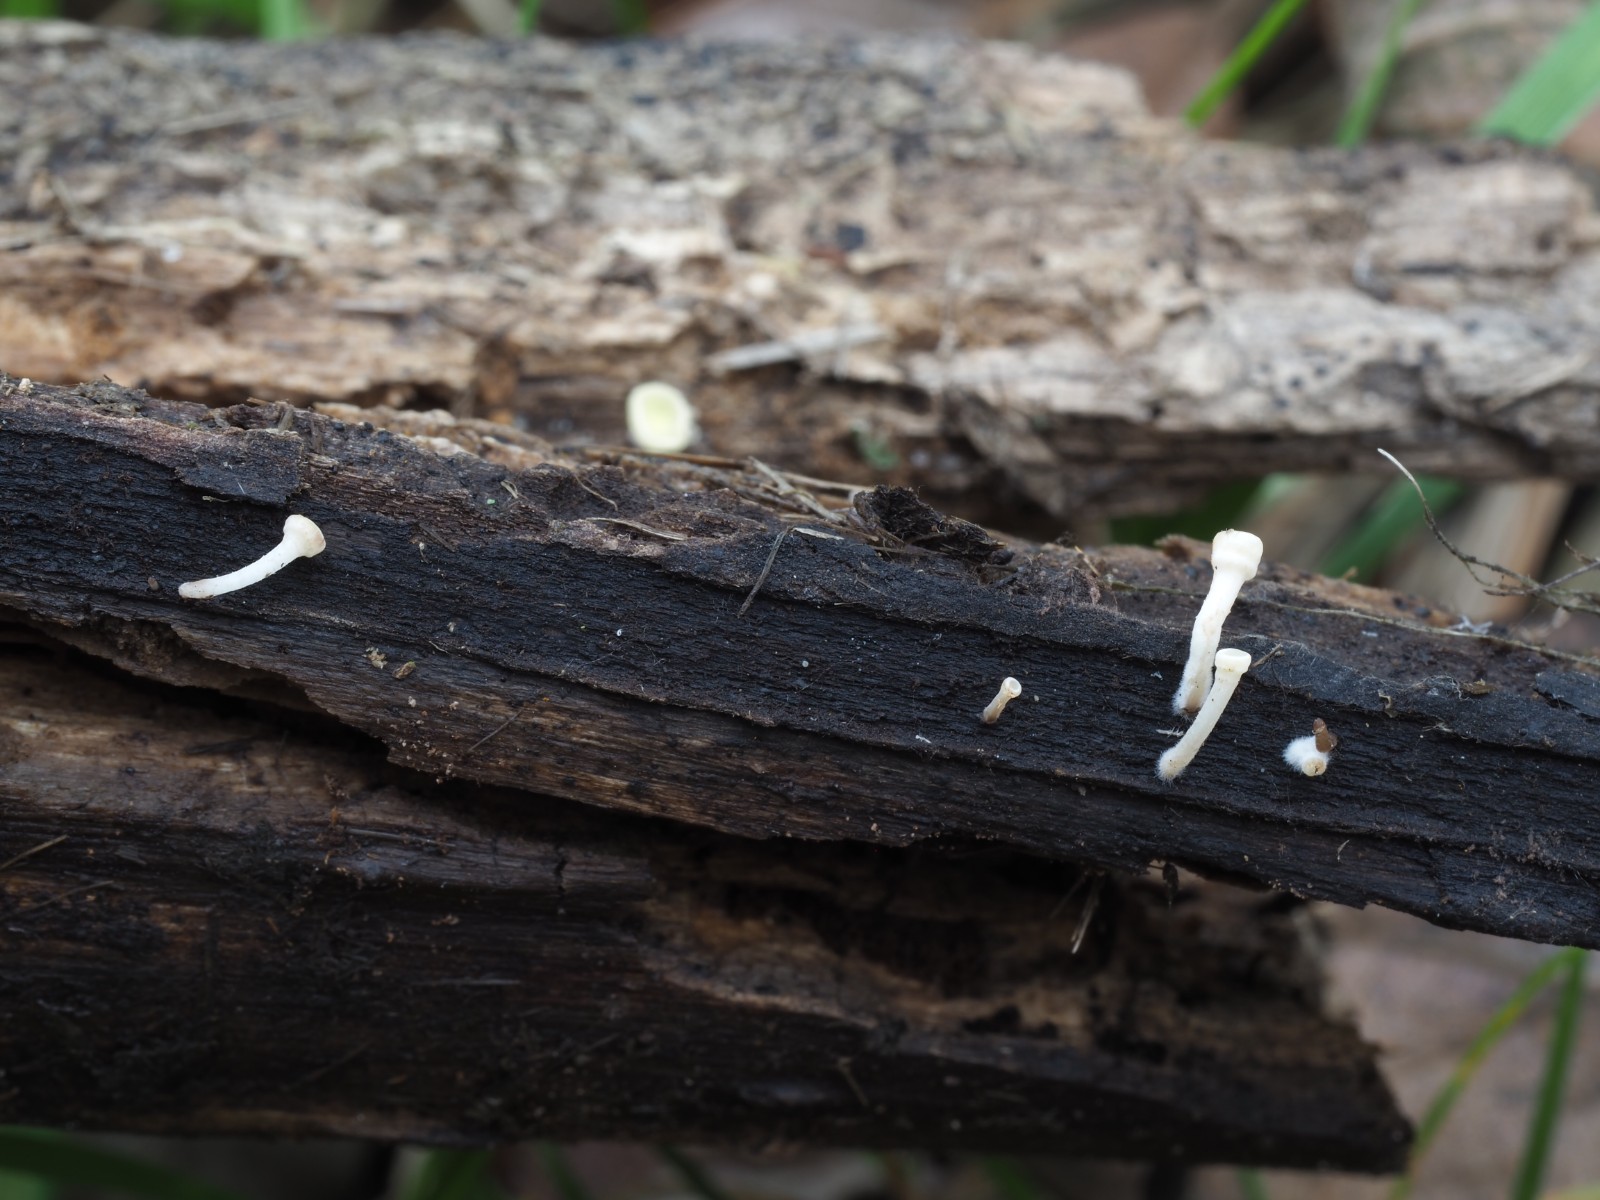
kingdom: Fungi
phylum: Ascomycota
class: Leotiomycetes
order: Helotiales
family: Helotiaceae
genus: Hymenoscyphus
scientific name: Hymenoscyphus
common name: stilkskive
